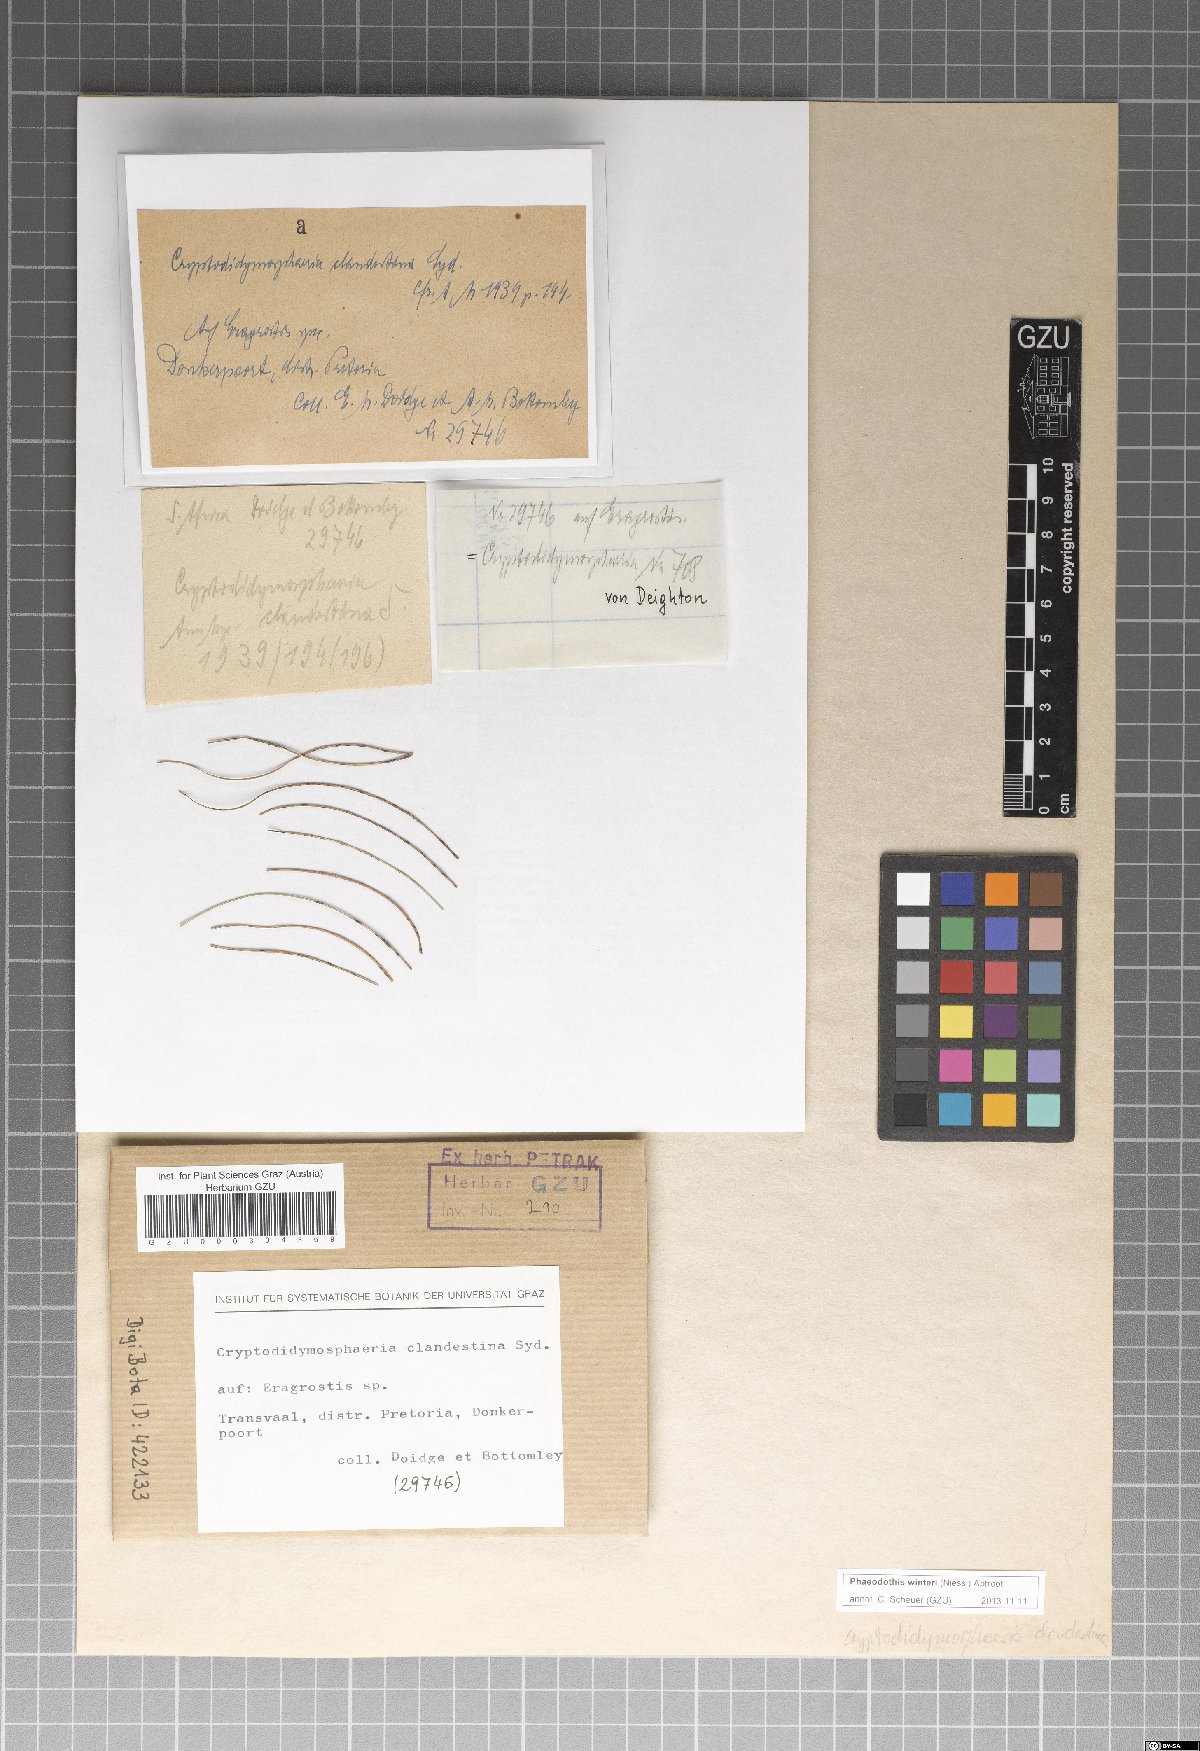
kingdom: Fungi
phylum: Ascomycota
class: Dothideomycetes
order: Pleosporales
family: Didymosphaeriaceae
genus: Phaeodothis
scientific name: Phaeodothis winteri
